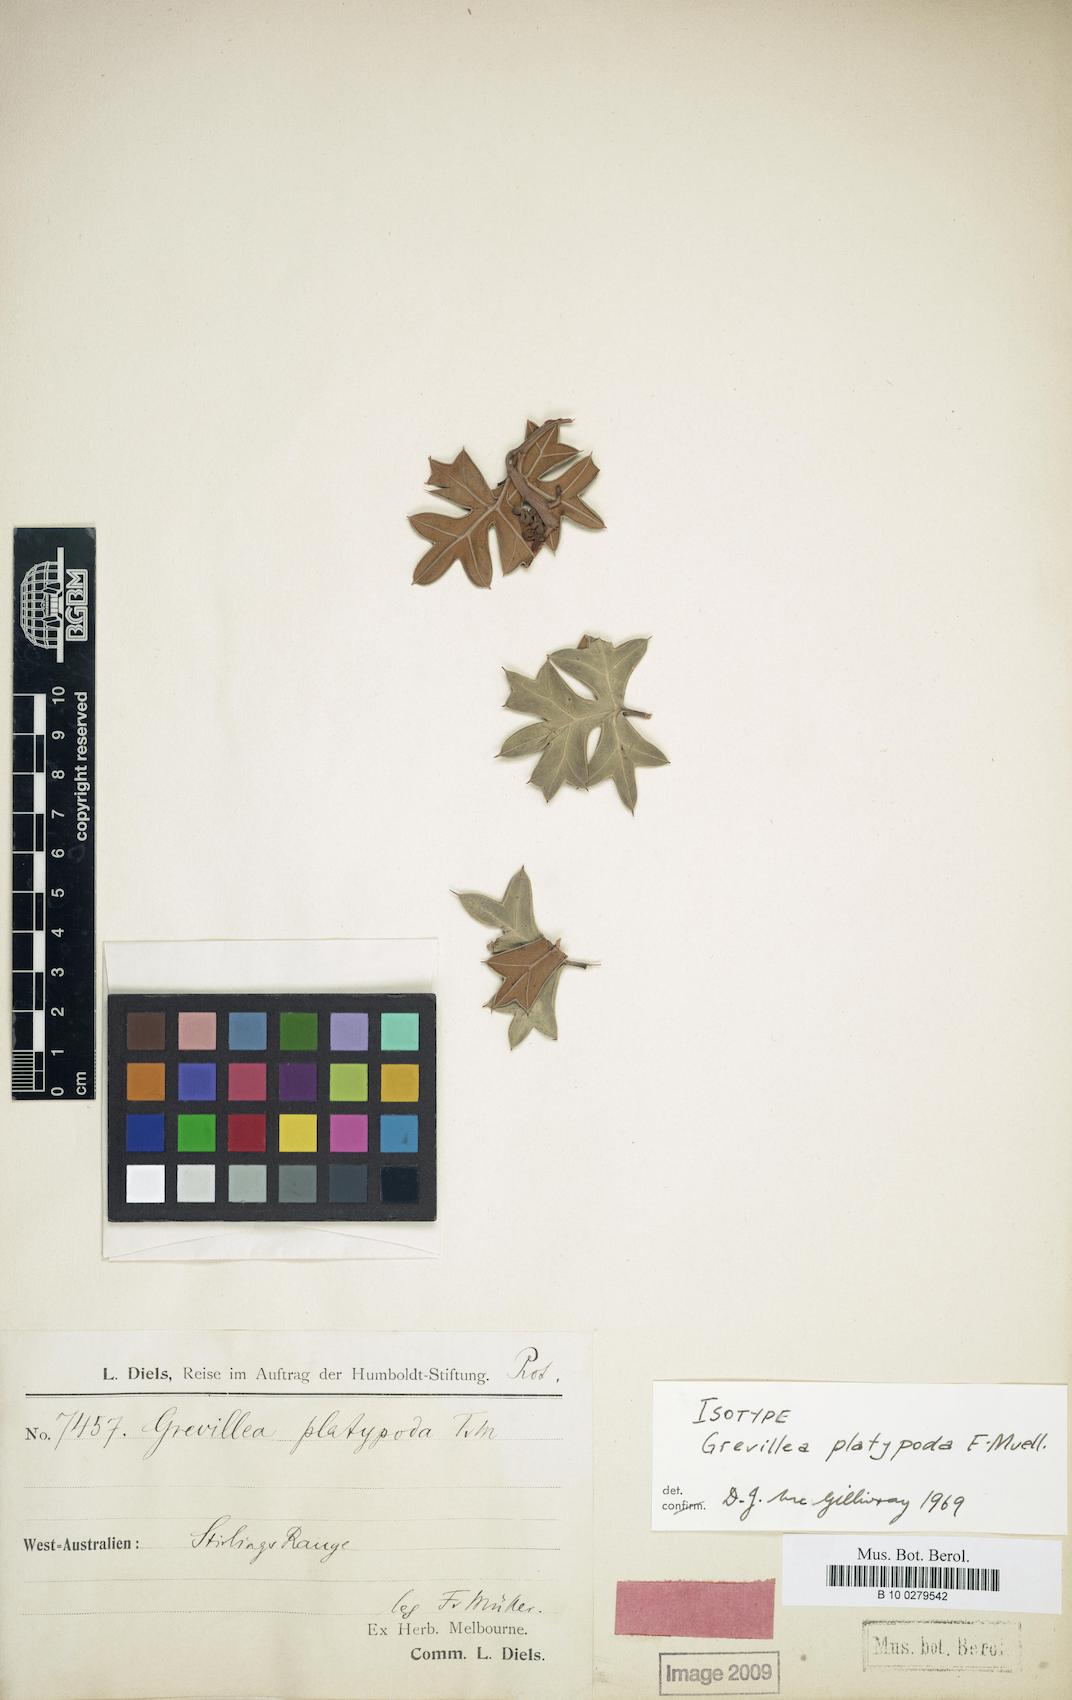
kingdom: Plantae
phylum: Tracheophyta
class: Magnoliopsida
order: Proteales
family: Proteaceae
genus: Grevillea
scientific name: Grevillea patentiloba
